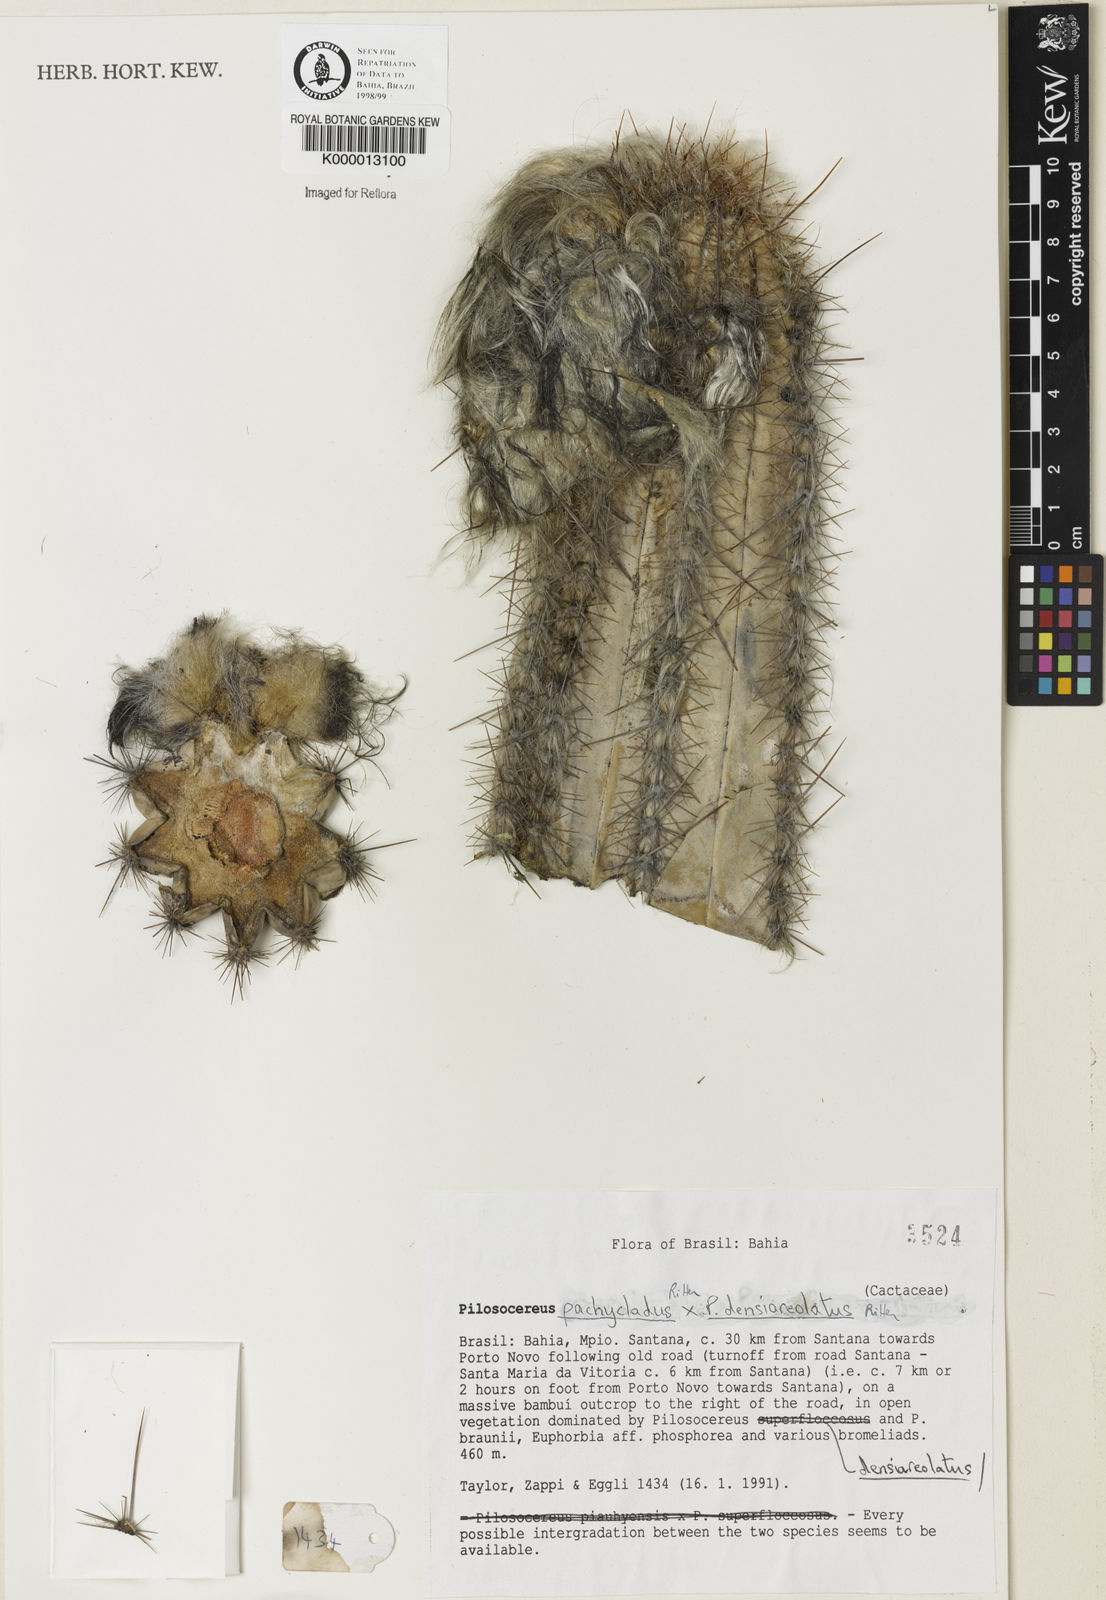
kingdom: Plantae
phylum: Tracheophyta
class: Magnoliopsida
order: Caryophyllales
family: Cactaceae
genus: Pilosocereus
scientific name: Pilosocereus pachycladus
